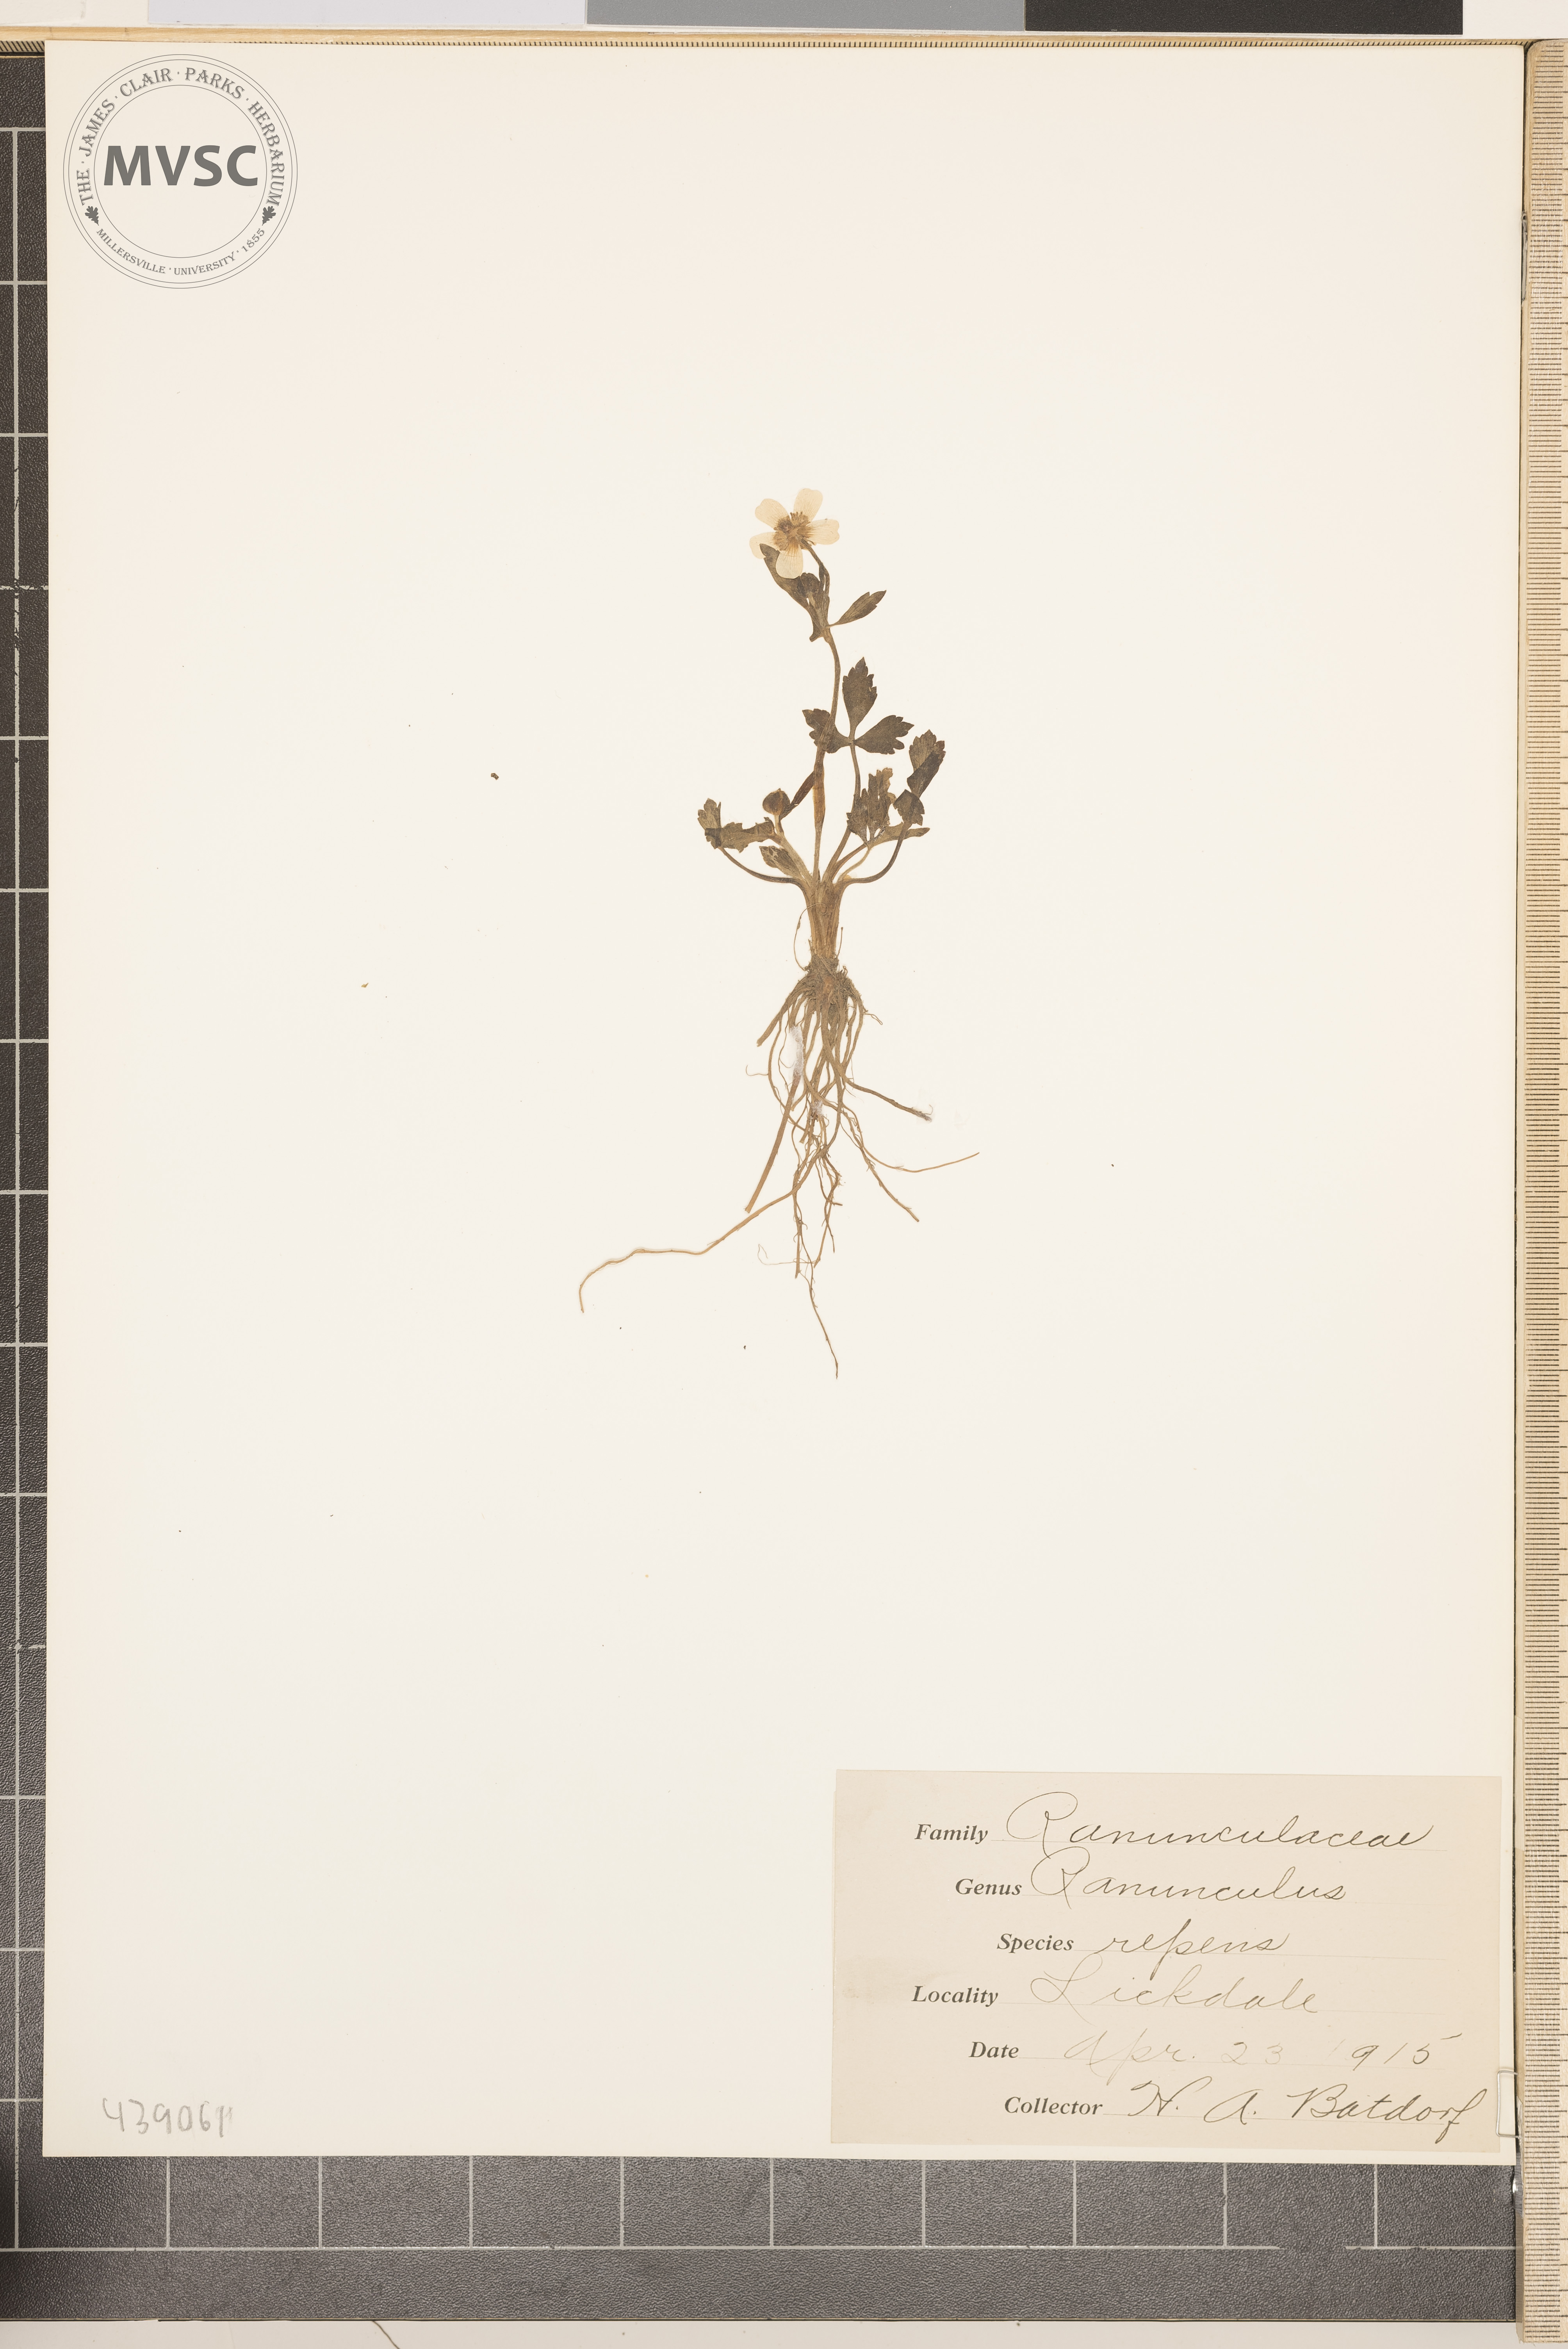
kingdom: Plantae
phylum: Tracheophyta
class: Magnoliopsida
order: Ranunculales
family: Ranunculaceae
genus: Ranunculus
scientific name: Ranunculus repens
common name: Creeping buttercup
